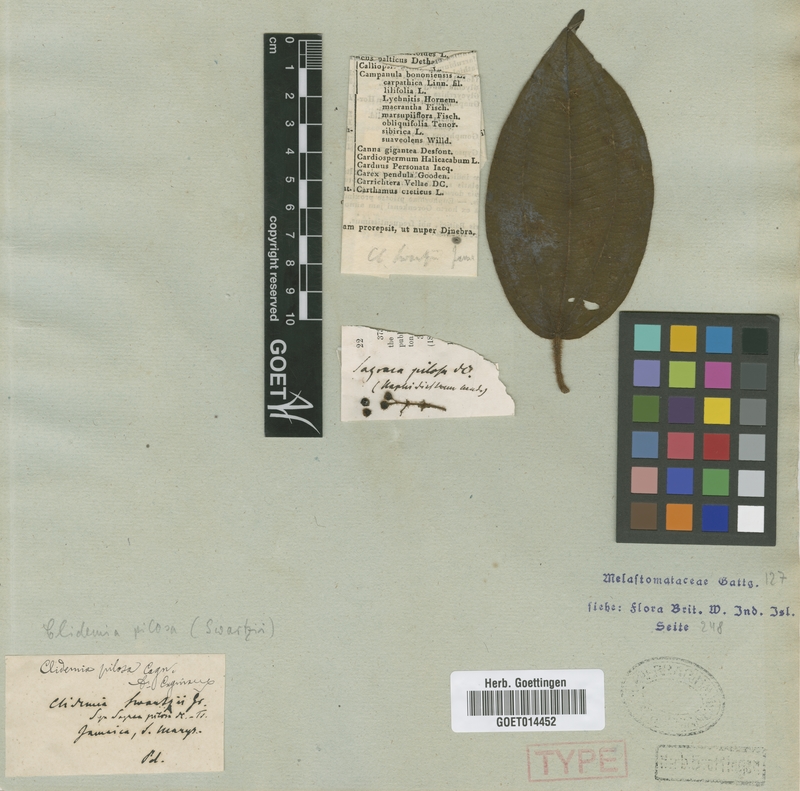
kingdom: Plantae
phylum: Tracheophyta
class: Magnoliopsida
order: Myrtales
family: Melastomataceae
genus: Miconia
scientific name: Miconia neopilosa
